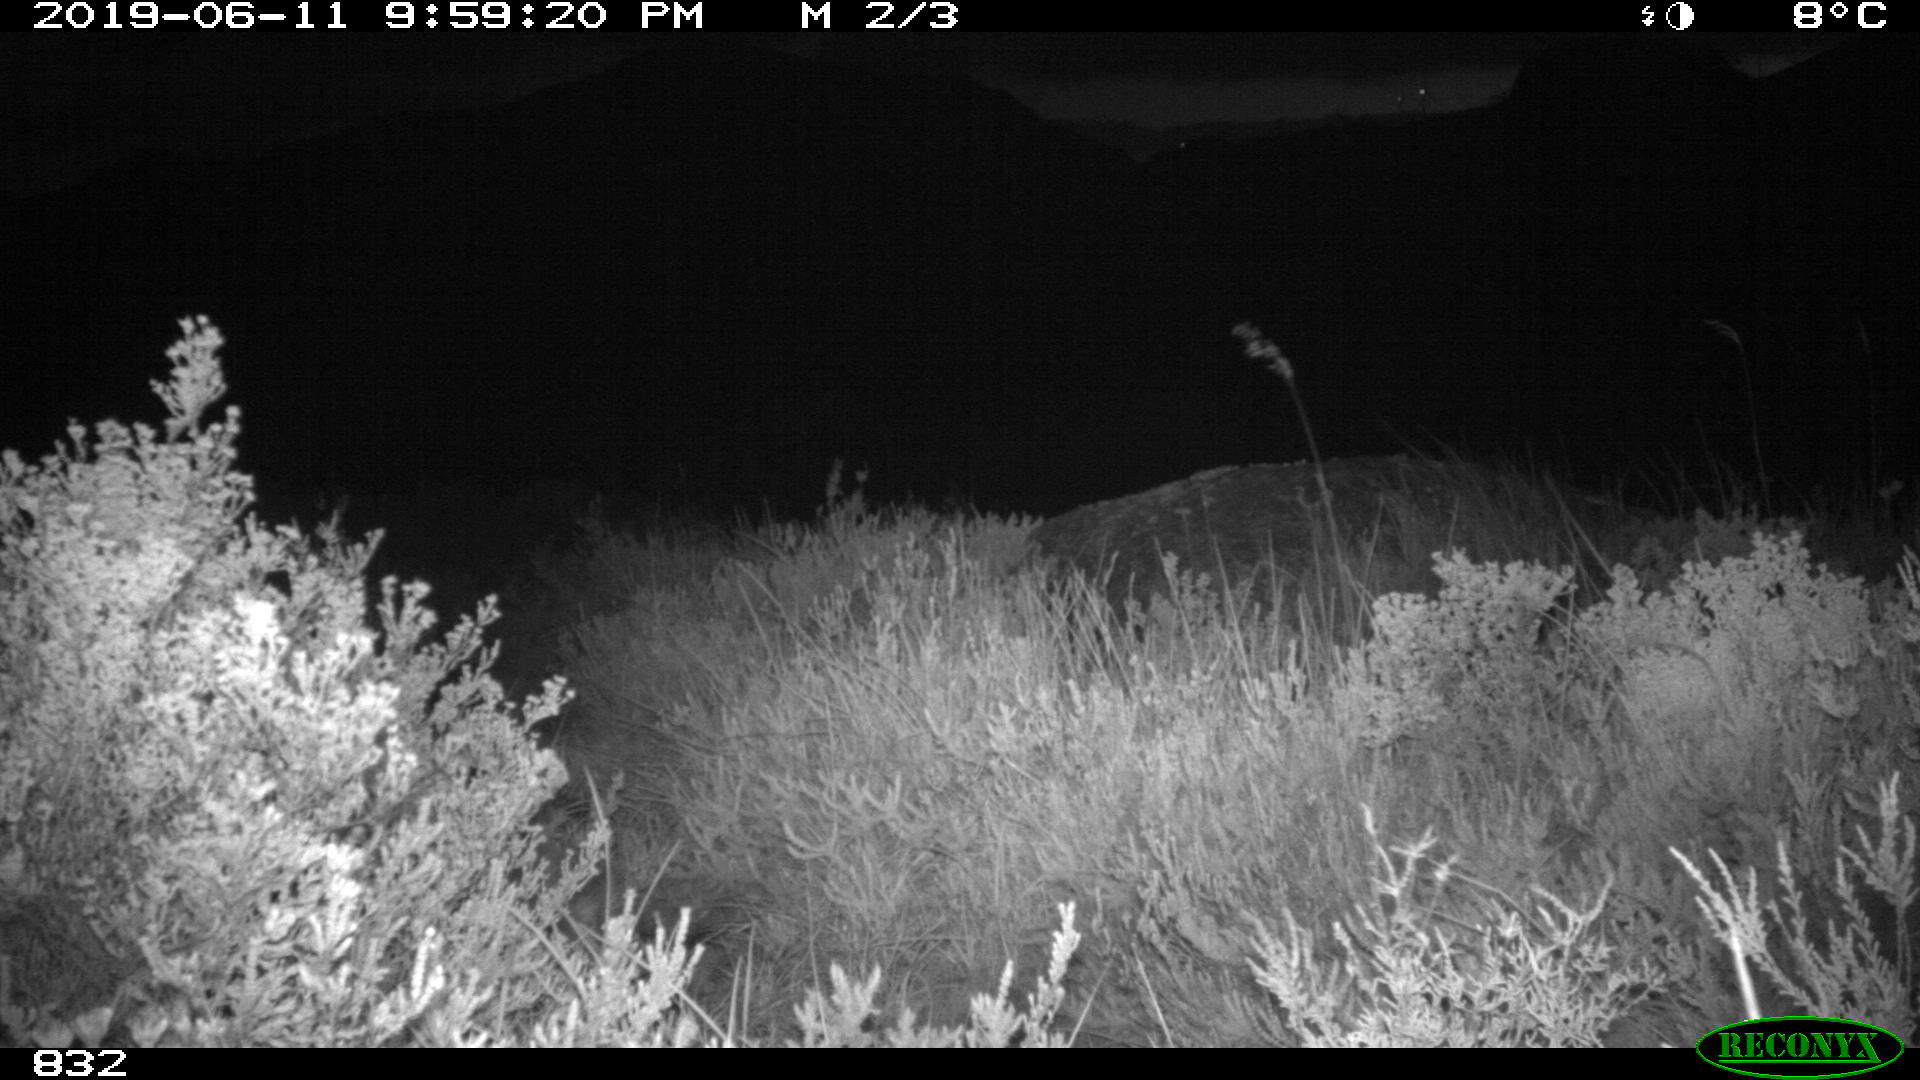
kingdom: Animalia
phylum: Chordata
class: Mammalia
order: Carnivora
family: Canidae
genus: Canis
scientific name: Canis lupus
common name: Gray wolf
